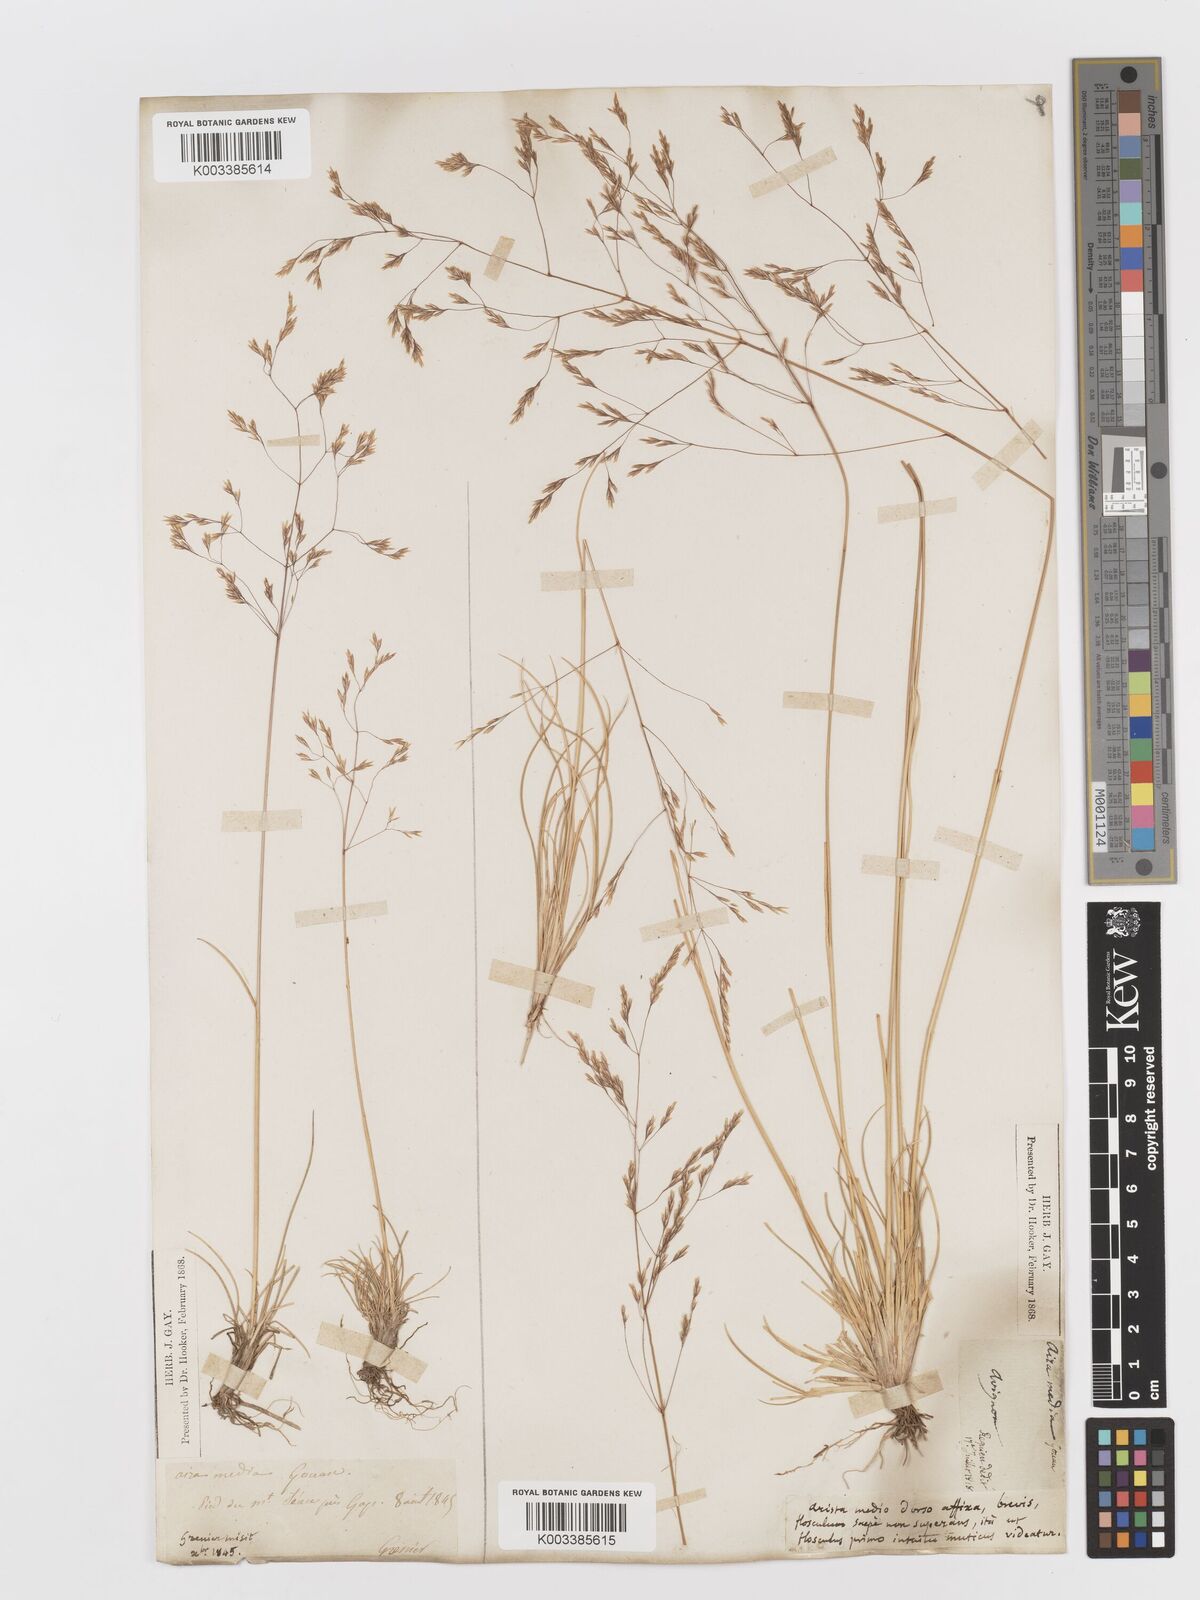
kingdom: Plantae
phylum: Tracheophyta
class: Liliopsida
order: Poales
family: Poaceae
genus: Deschampsia
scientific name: Deschampsia media
